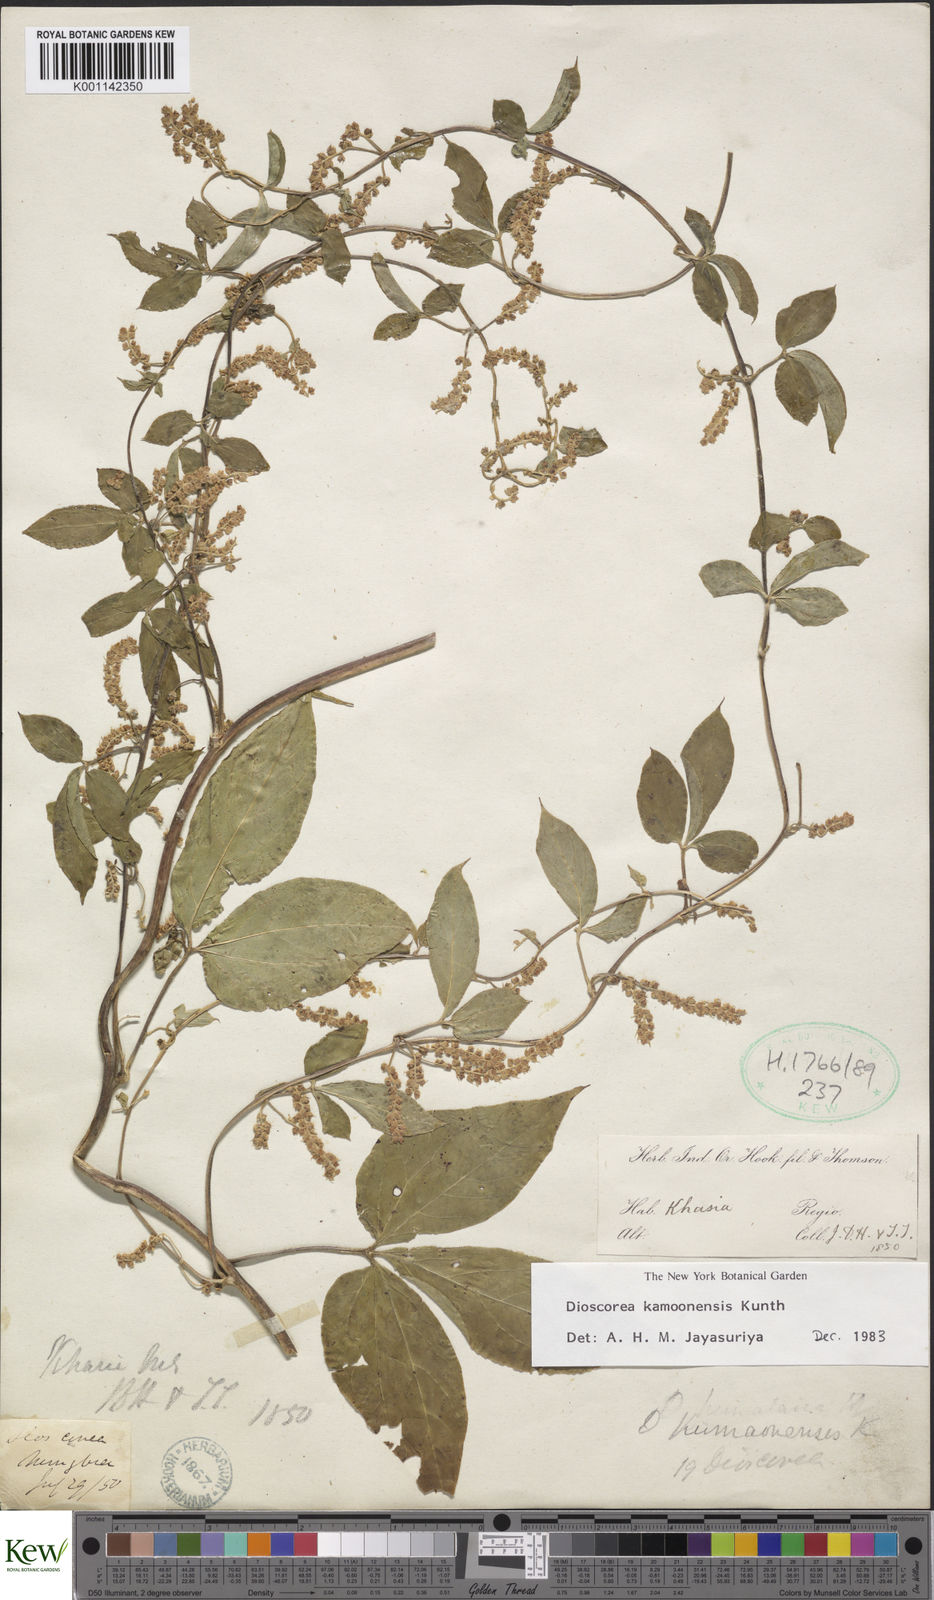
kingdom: Plantae
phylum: Tracheophyta
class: Liliopsida
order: Dioscoreales
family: Dioscoreaceae
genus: Dioscorea
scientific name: Dioscorea kamoonensis
